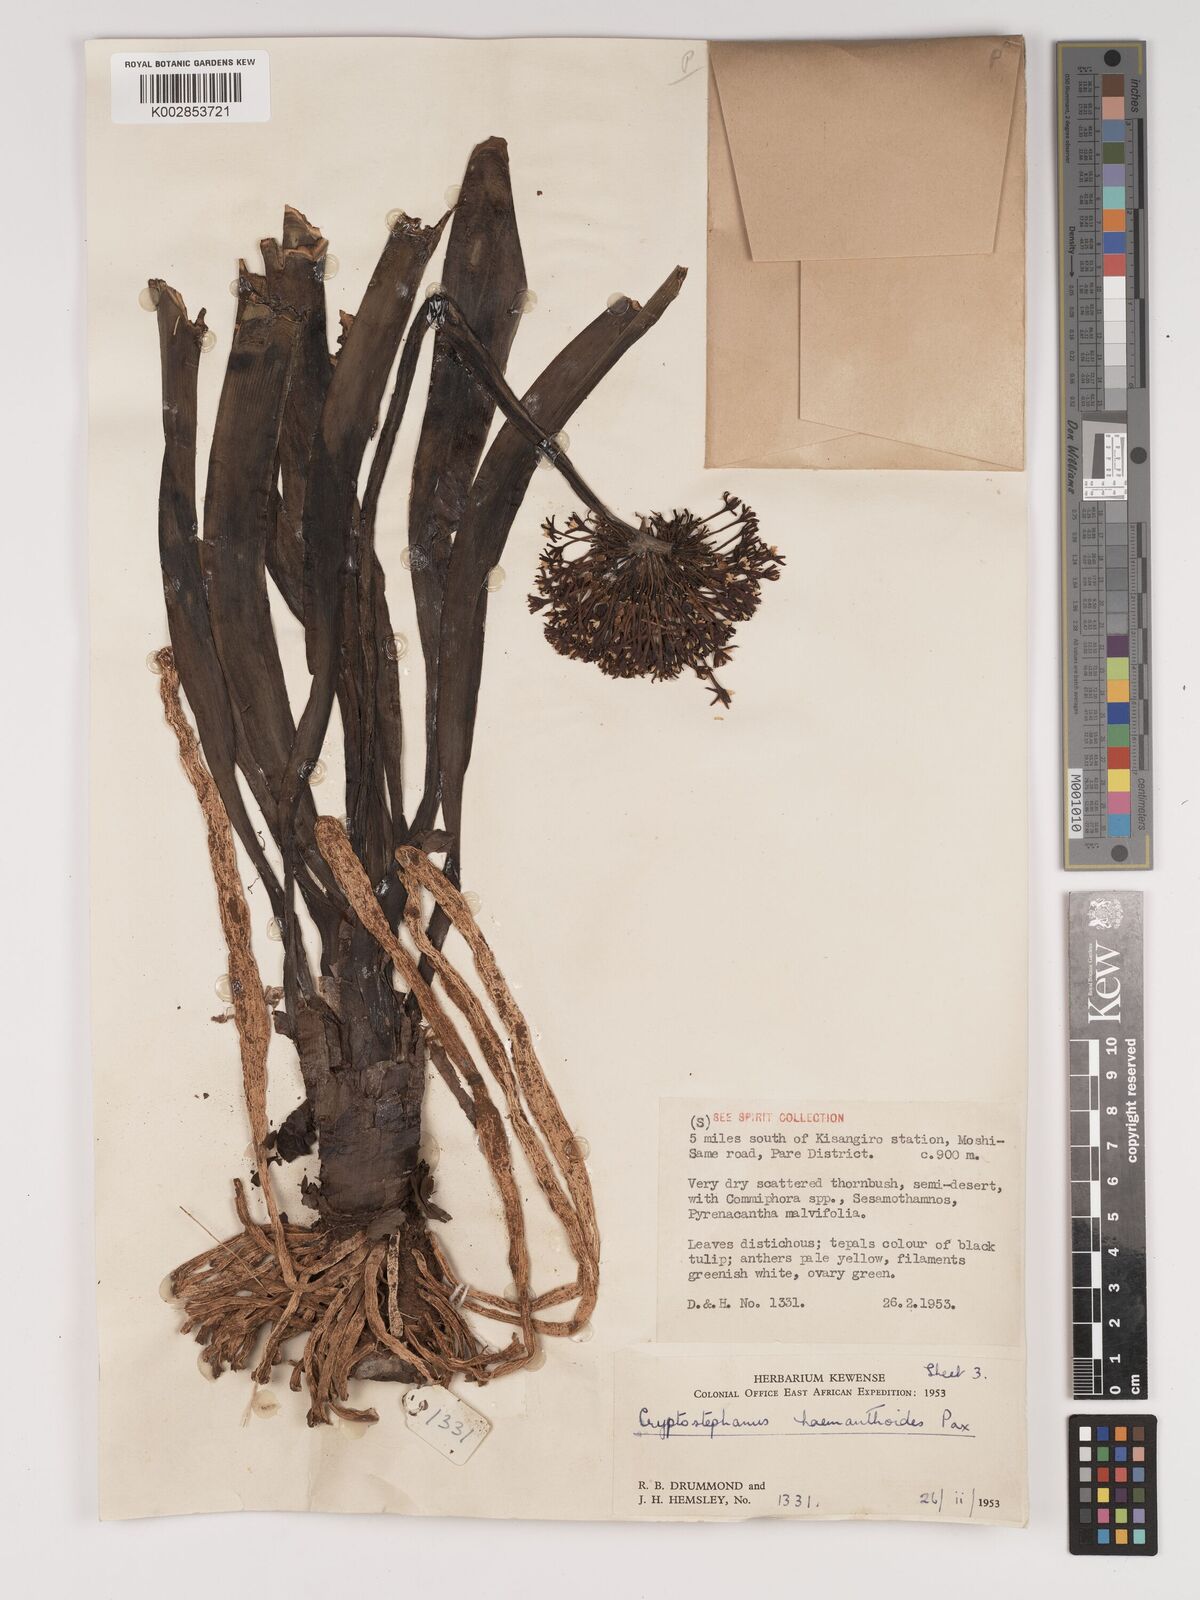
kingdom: Plantae
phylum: Tracheophyta
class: Liliopsida
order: Asparagales
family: Amaryllidaceae
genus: Cryptostephanus
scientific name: Cryptostephanus haemanthoides
